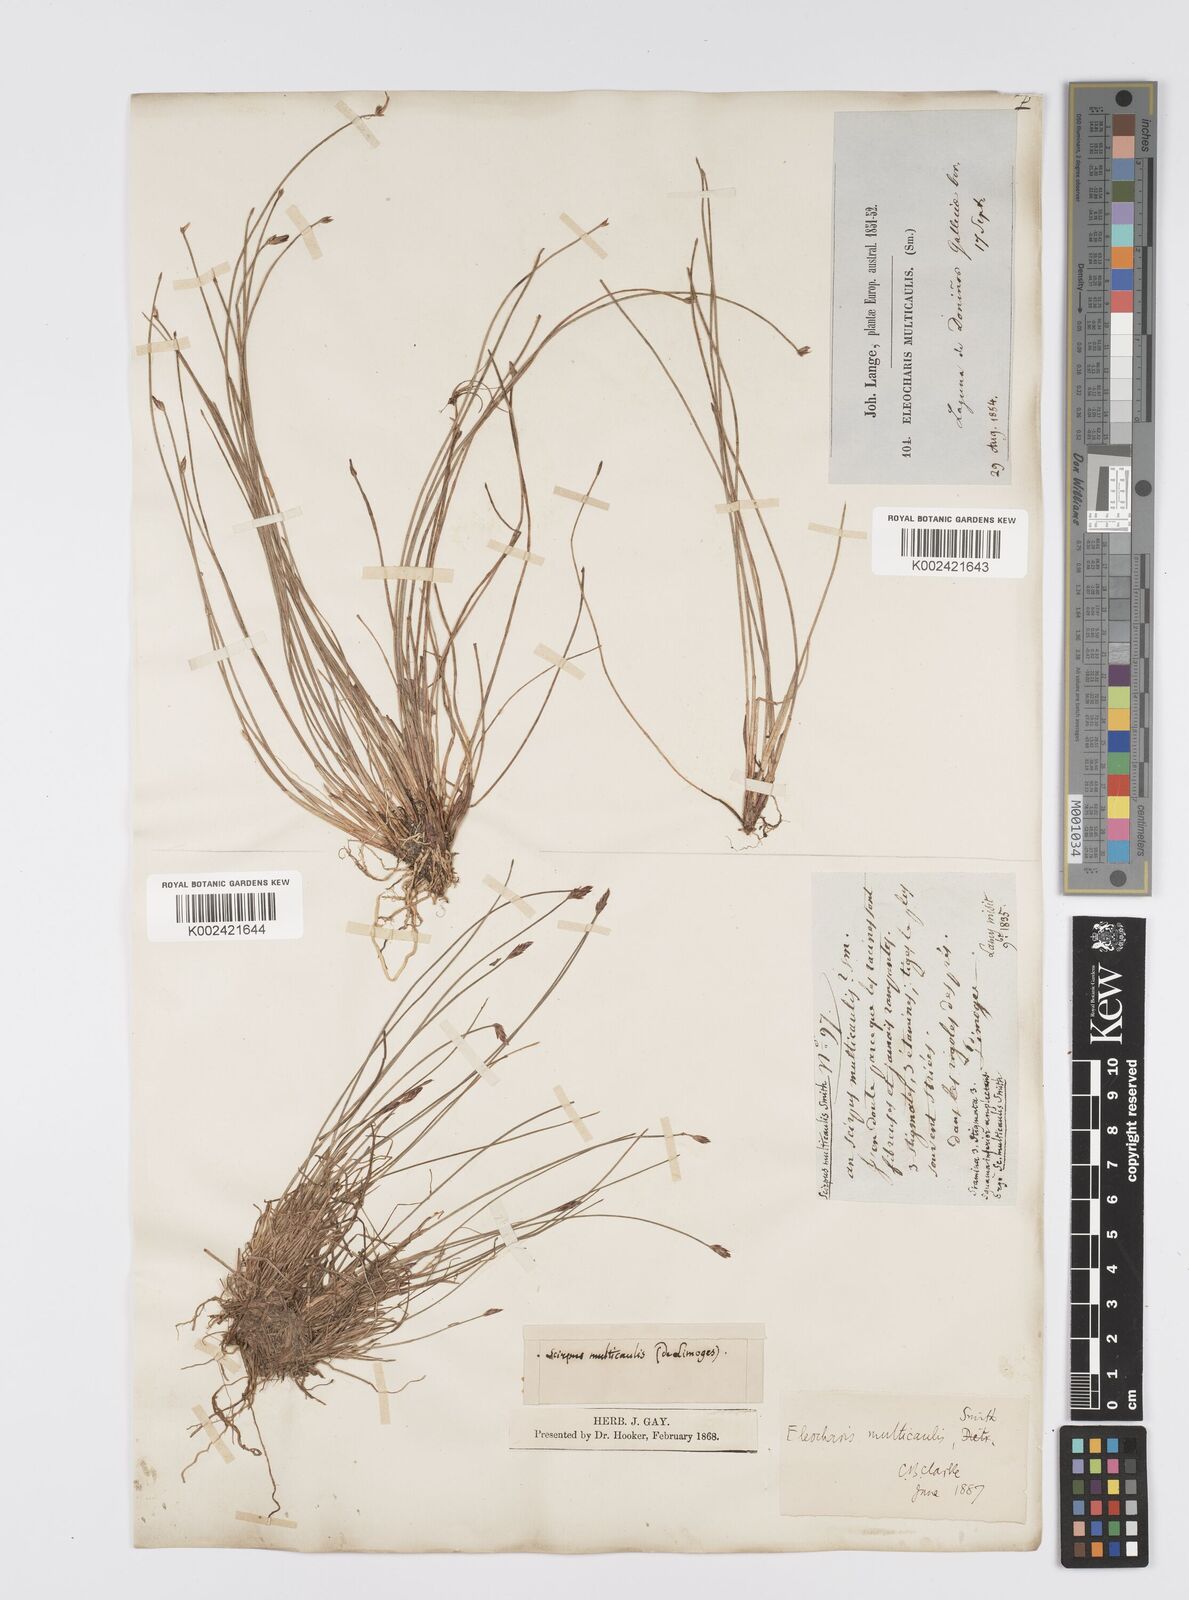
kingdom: Plantae
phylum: Tracheophyta
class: Liliopsida
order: Poales
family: Cyperaceae
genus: Eleocharis
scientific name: Eleocharis multicaulis
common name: Many-stalked spike-rush
